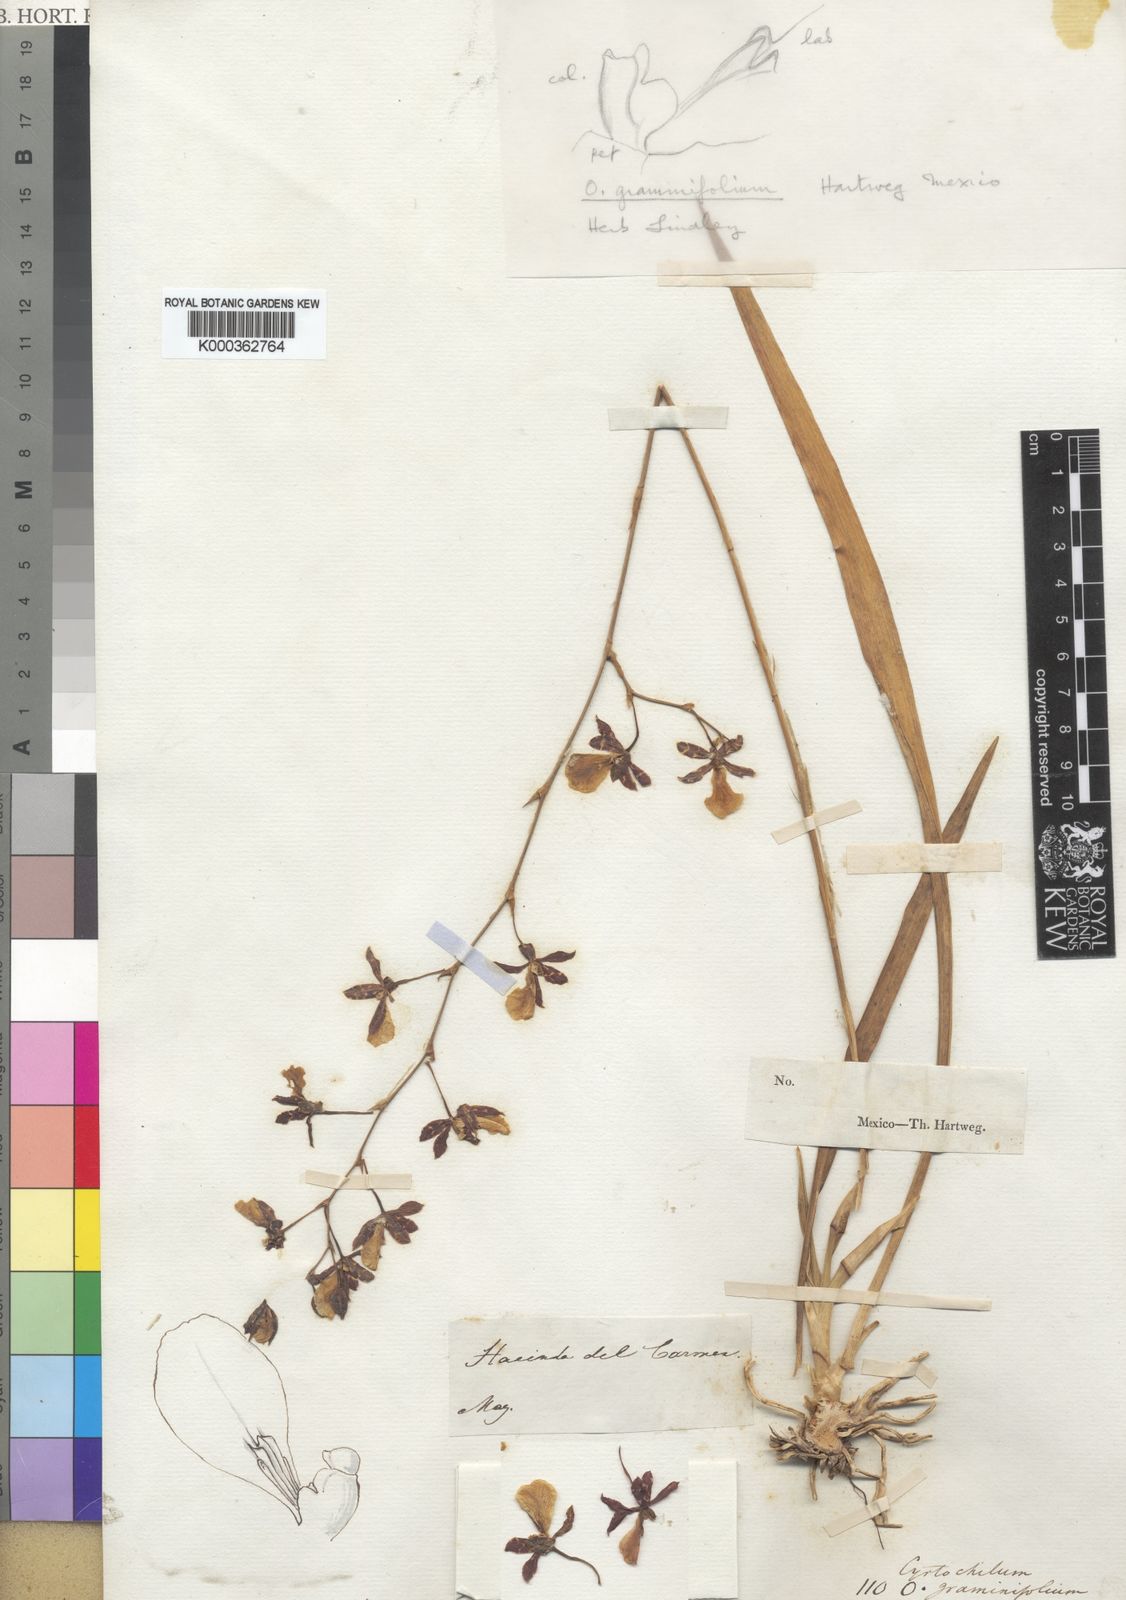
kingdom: Plantae
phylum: Tracheophyta
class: Liliopsida
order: Asparagales
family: Orchidaceae
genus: Oncidium
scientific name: Oncidium graminifolium
